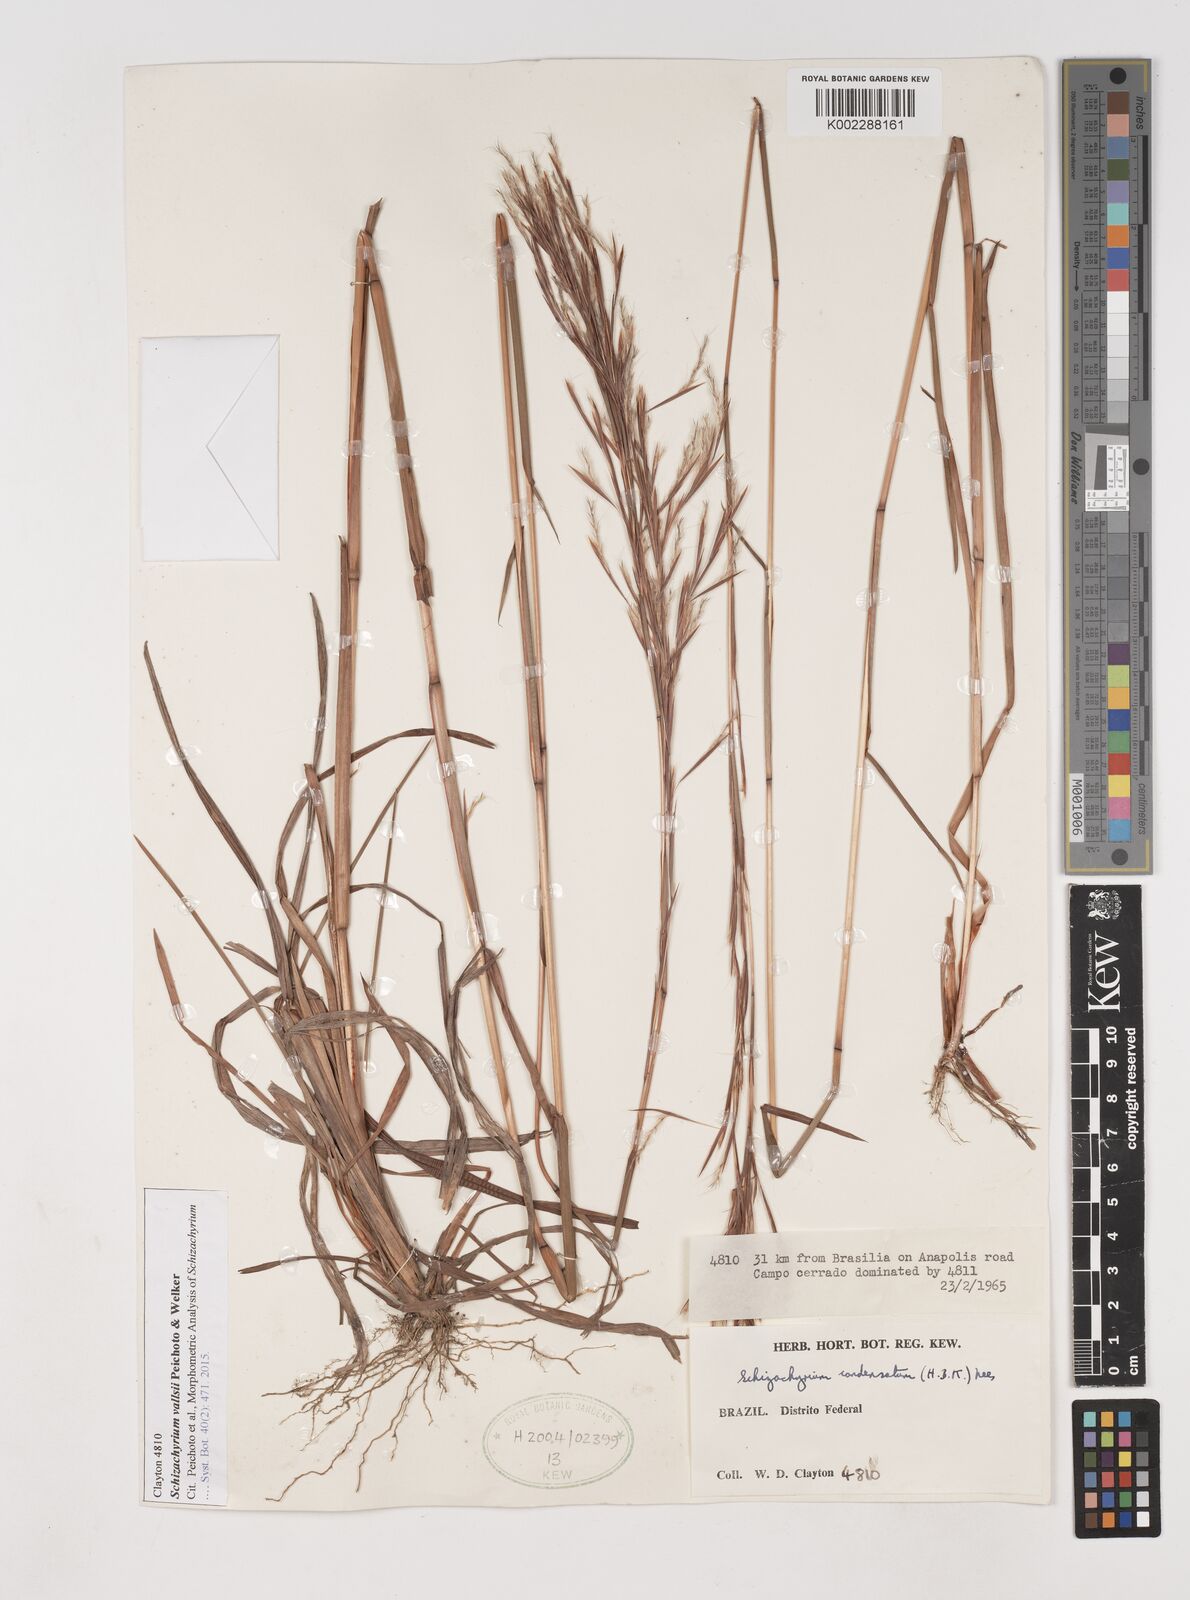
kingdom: Plantae
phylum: Tracheophyta
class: Liliopsida
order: Poales
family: Poaceae
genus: Schizachyrium
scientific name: Schizachyrium vallsii
